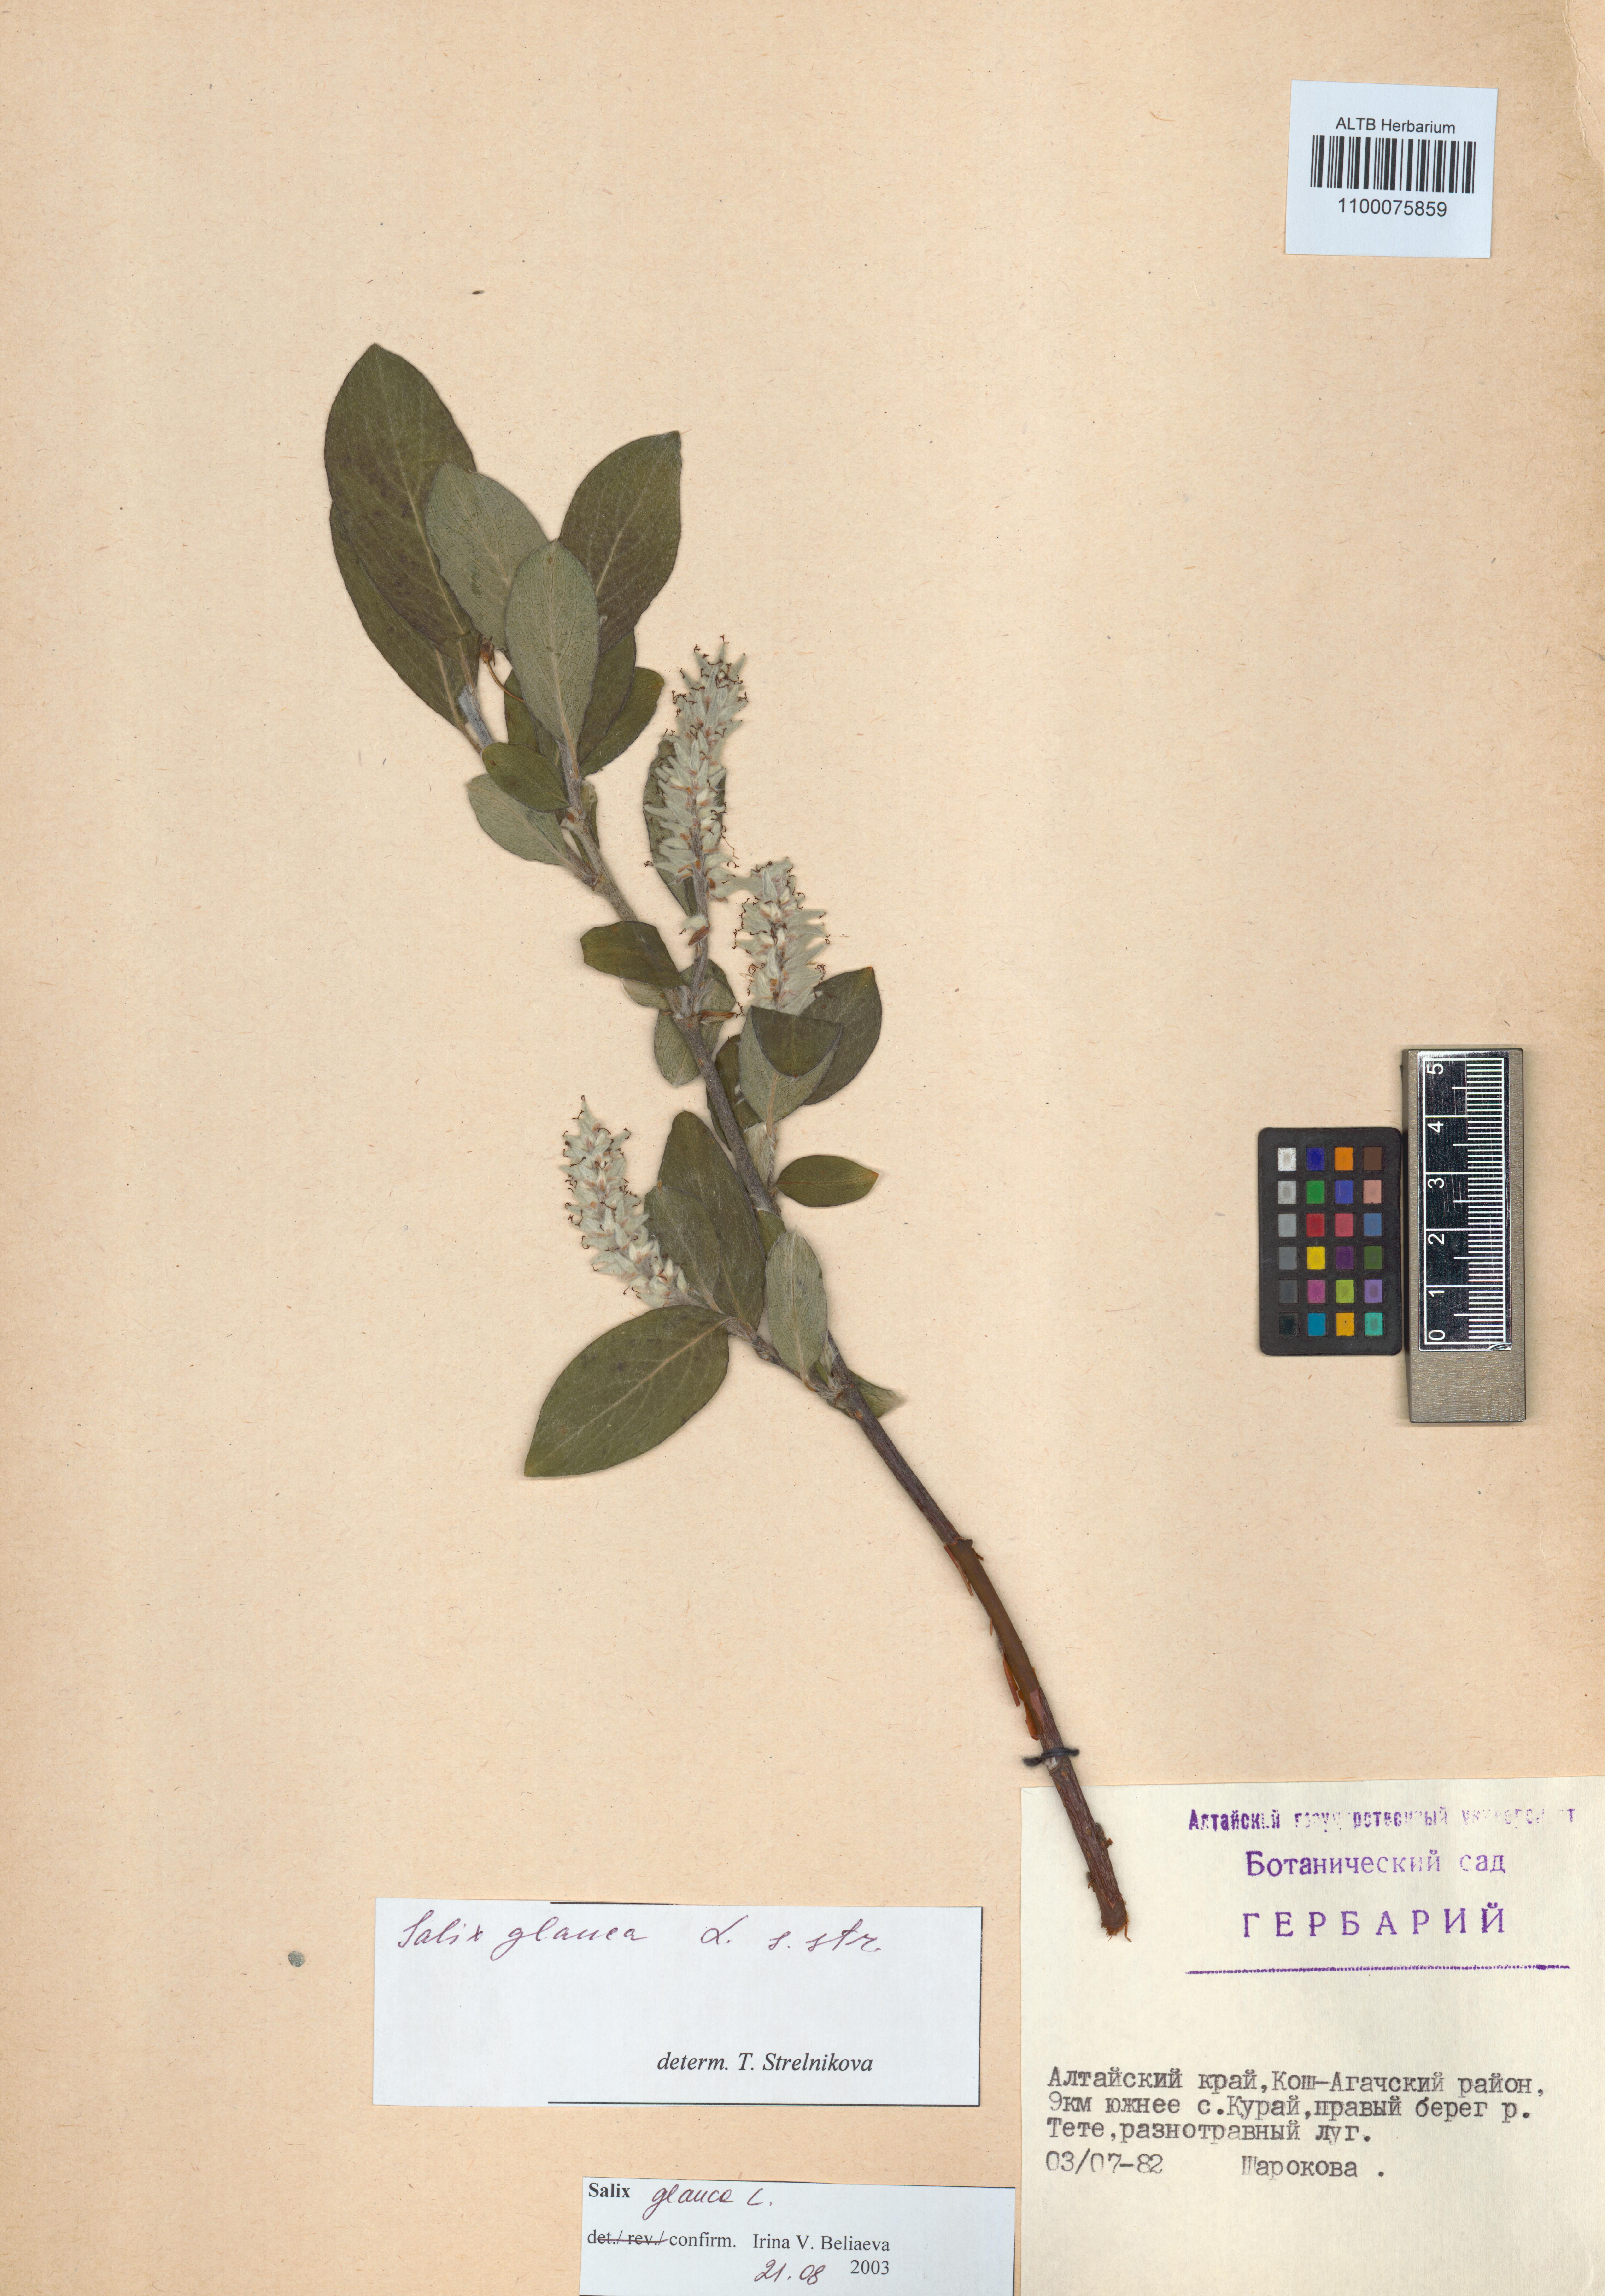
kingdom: Plantae
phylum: Tracheophyta
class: Magnoliopsida
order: Malpighiales
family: Salicaceae
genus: Salix
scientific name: Salix glauca
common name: Glaucous willow
